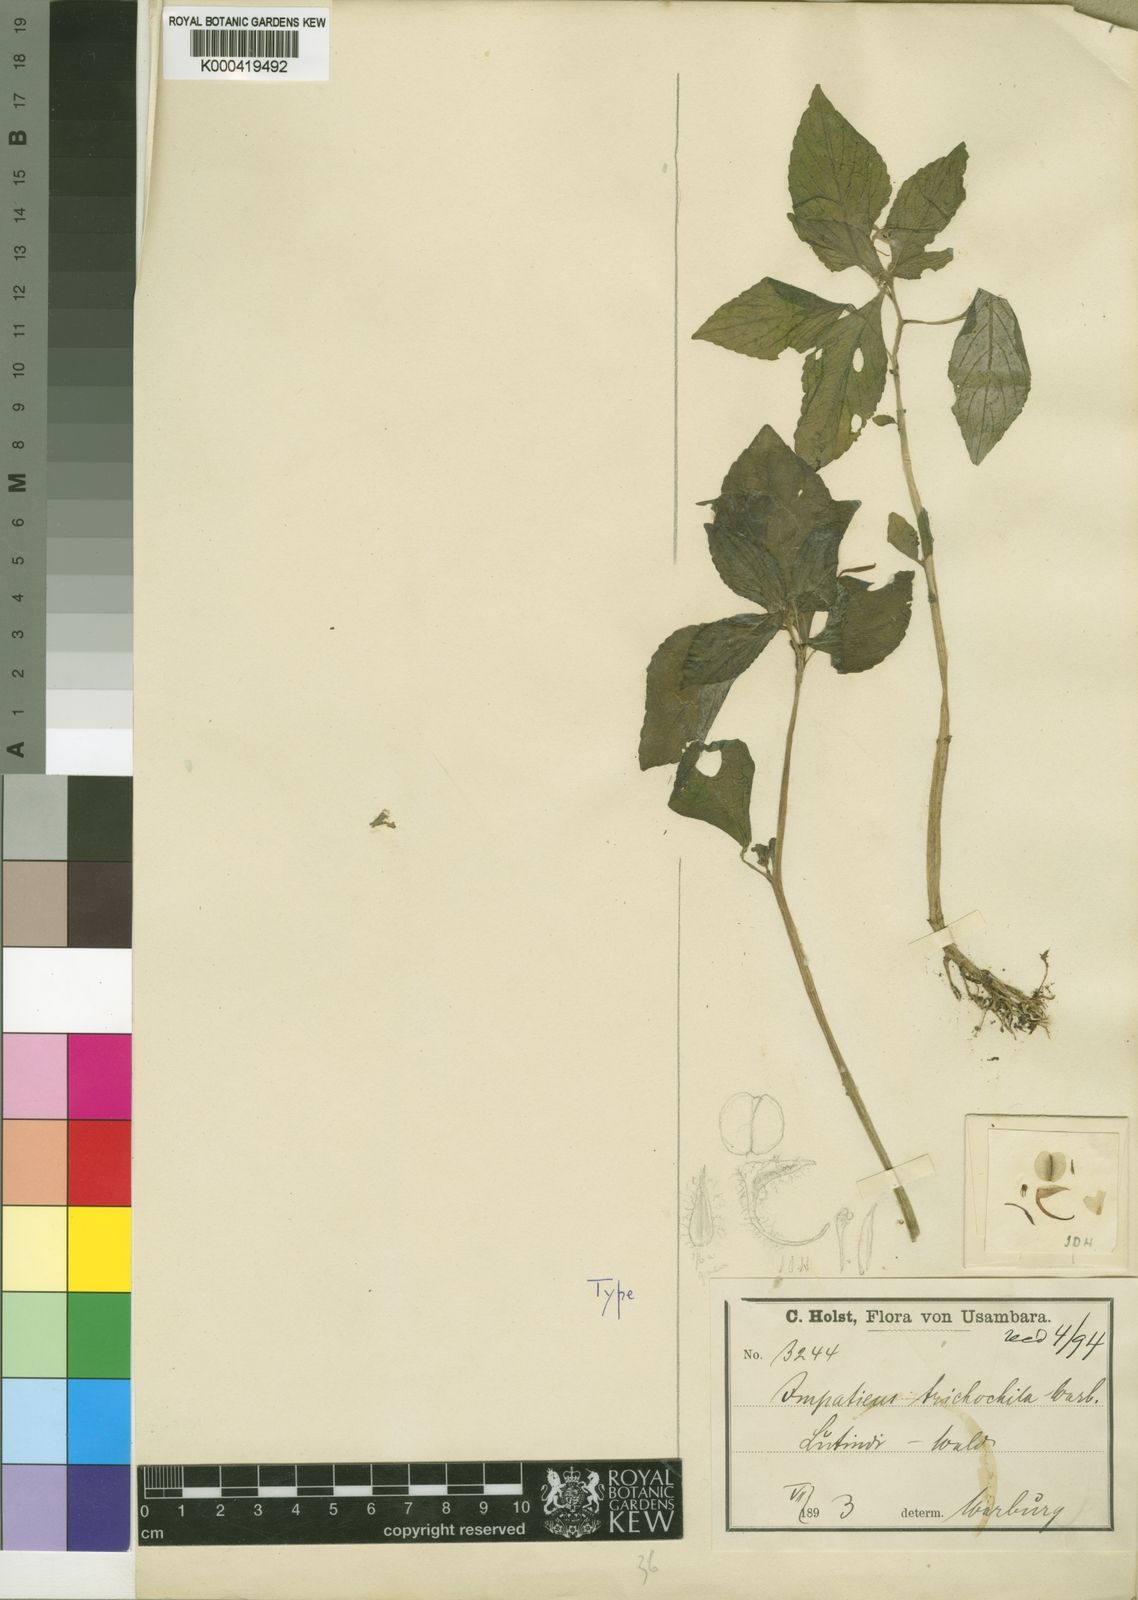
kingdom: Plantae
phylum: Tracheophyta
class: Magnoliopsida
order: Ericales
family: Balsaminaceae
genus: Impatiens
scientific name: Impatiens nana
